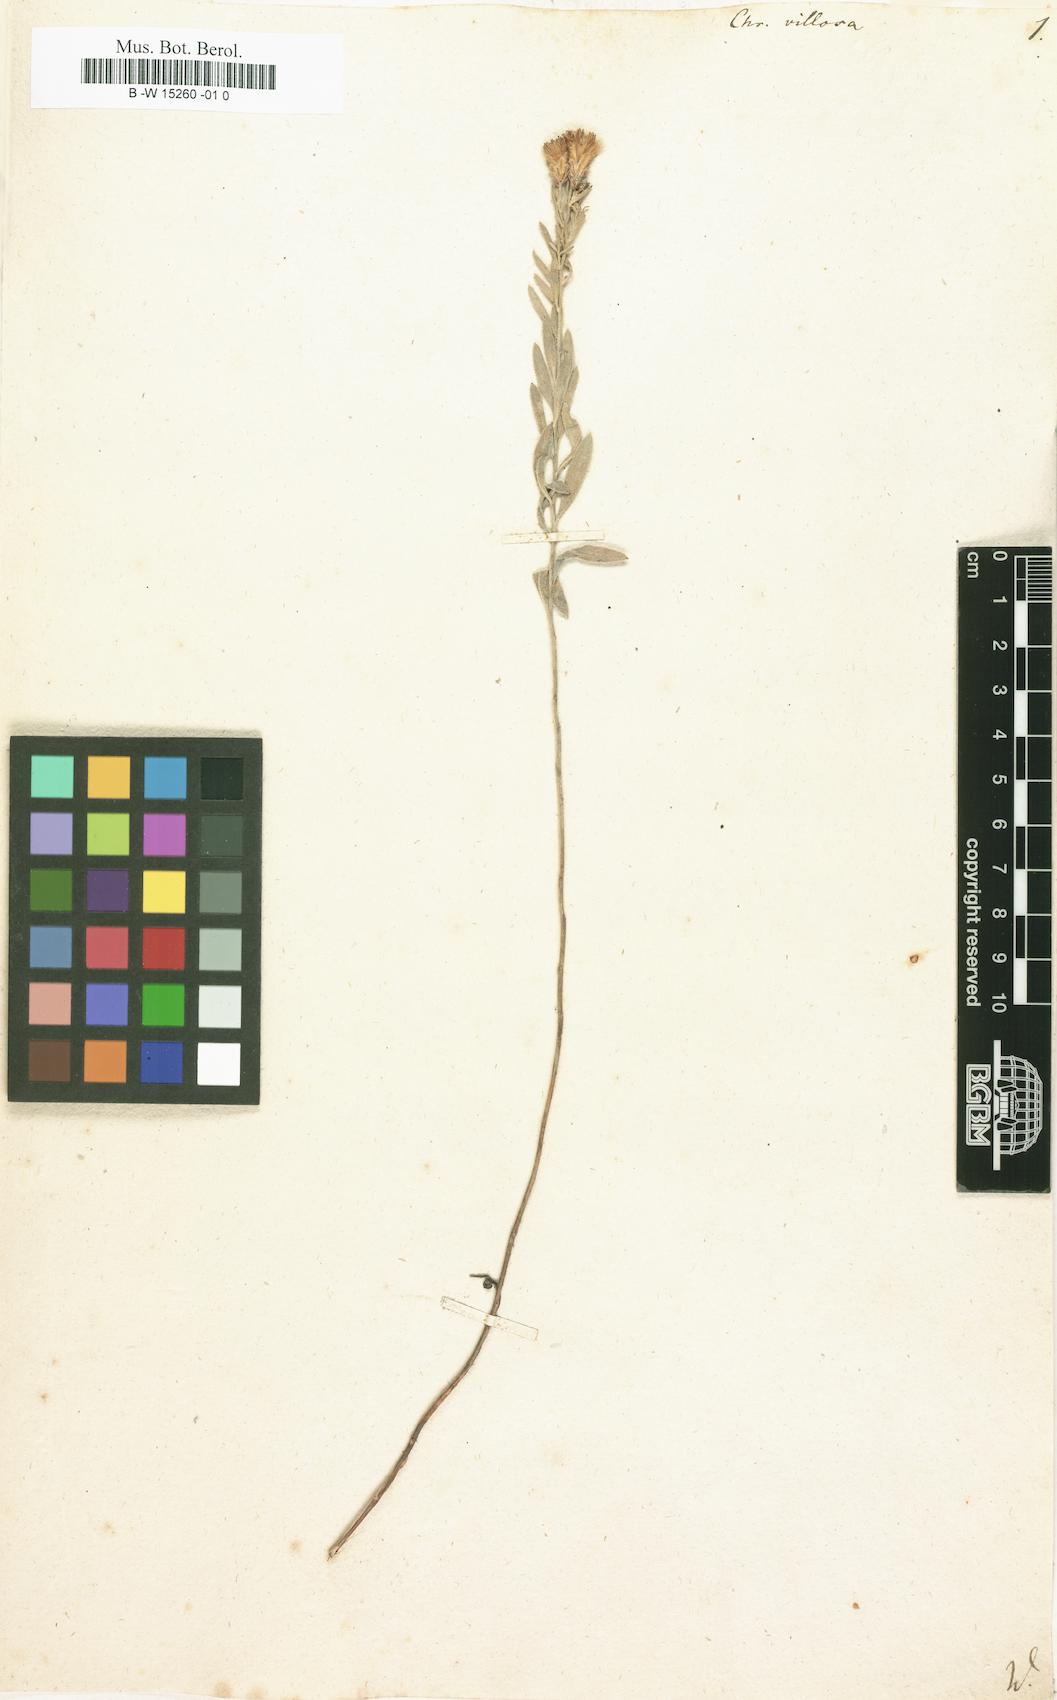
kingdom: Plantae
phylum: Tracheophyta
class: Magnoliopsida
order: Asterales
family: Asteraceae
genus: Galatella
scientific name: Galatella villosa
